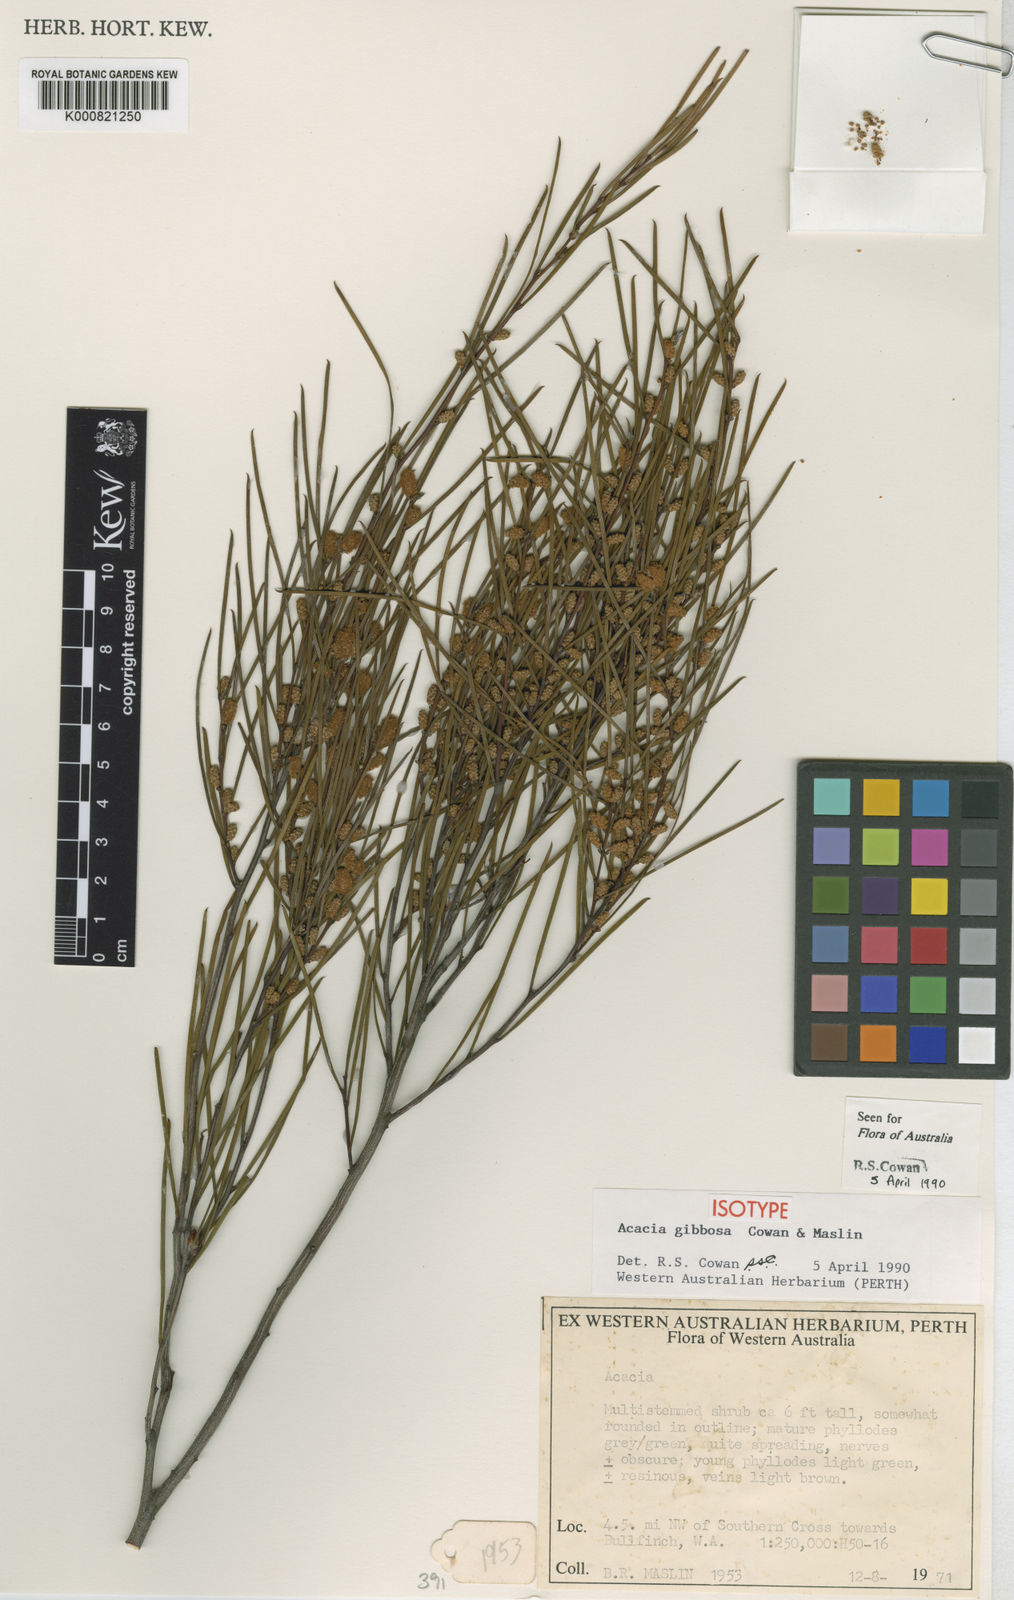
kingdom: Plantae
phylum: Tracheophyta
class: Magnoliopsida
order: Fabales
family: Fabaceae
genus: Acacia
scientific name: Acacia gibbosa
